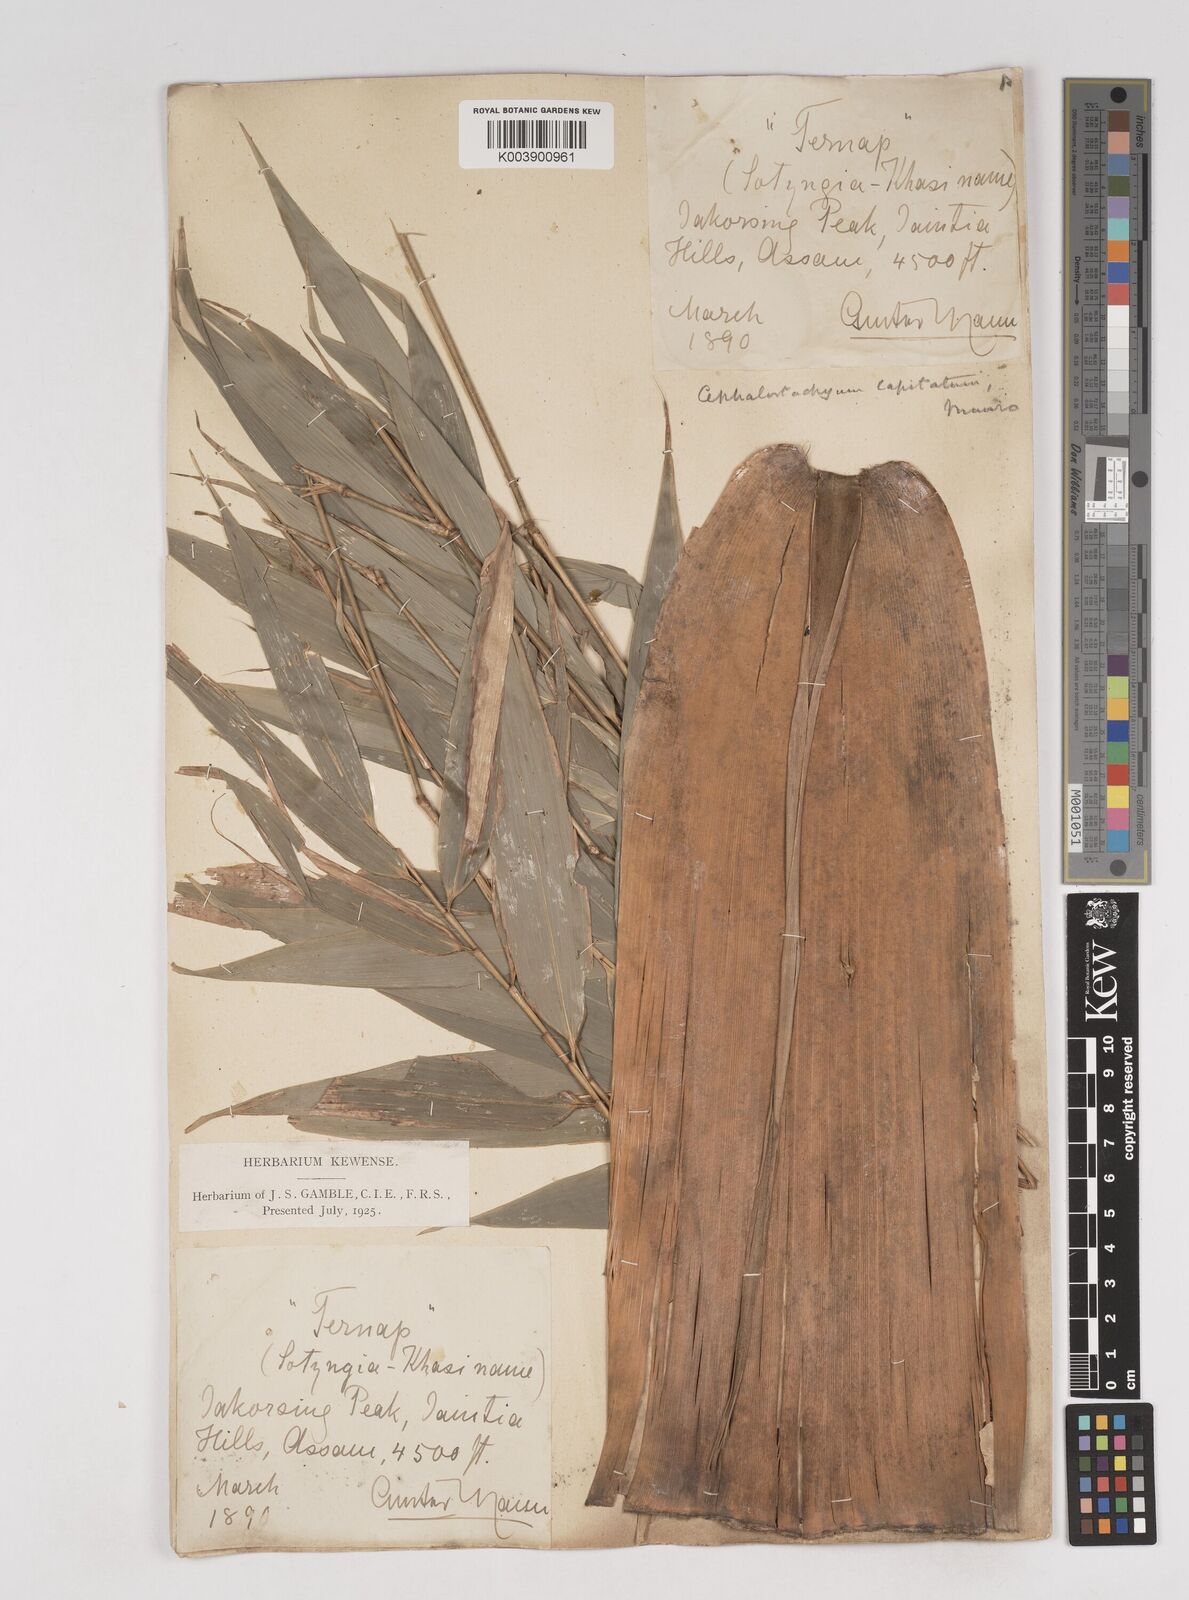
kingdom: Plantae
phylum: Tracheophyta
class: Liliopsida
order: Poales
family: Poaceae
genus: Cephalostachyum
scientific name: Cephalostachyum capitatum
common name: Hollow bamboo
